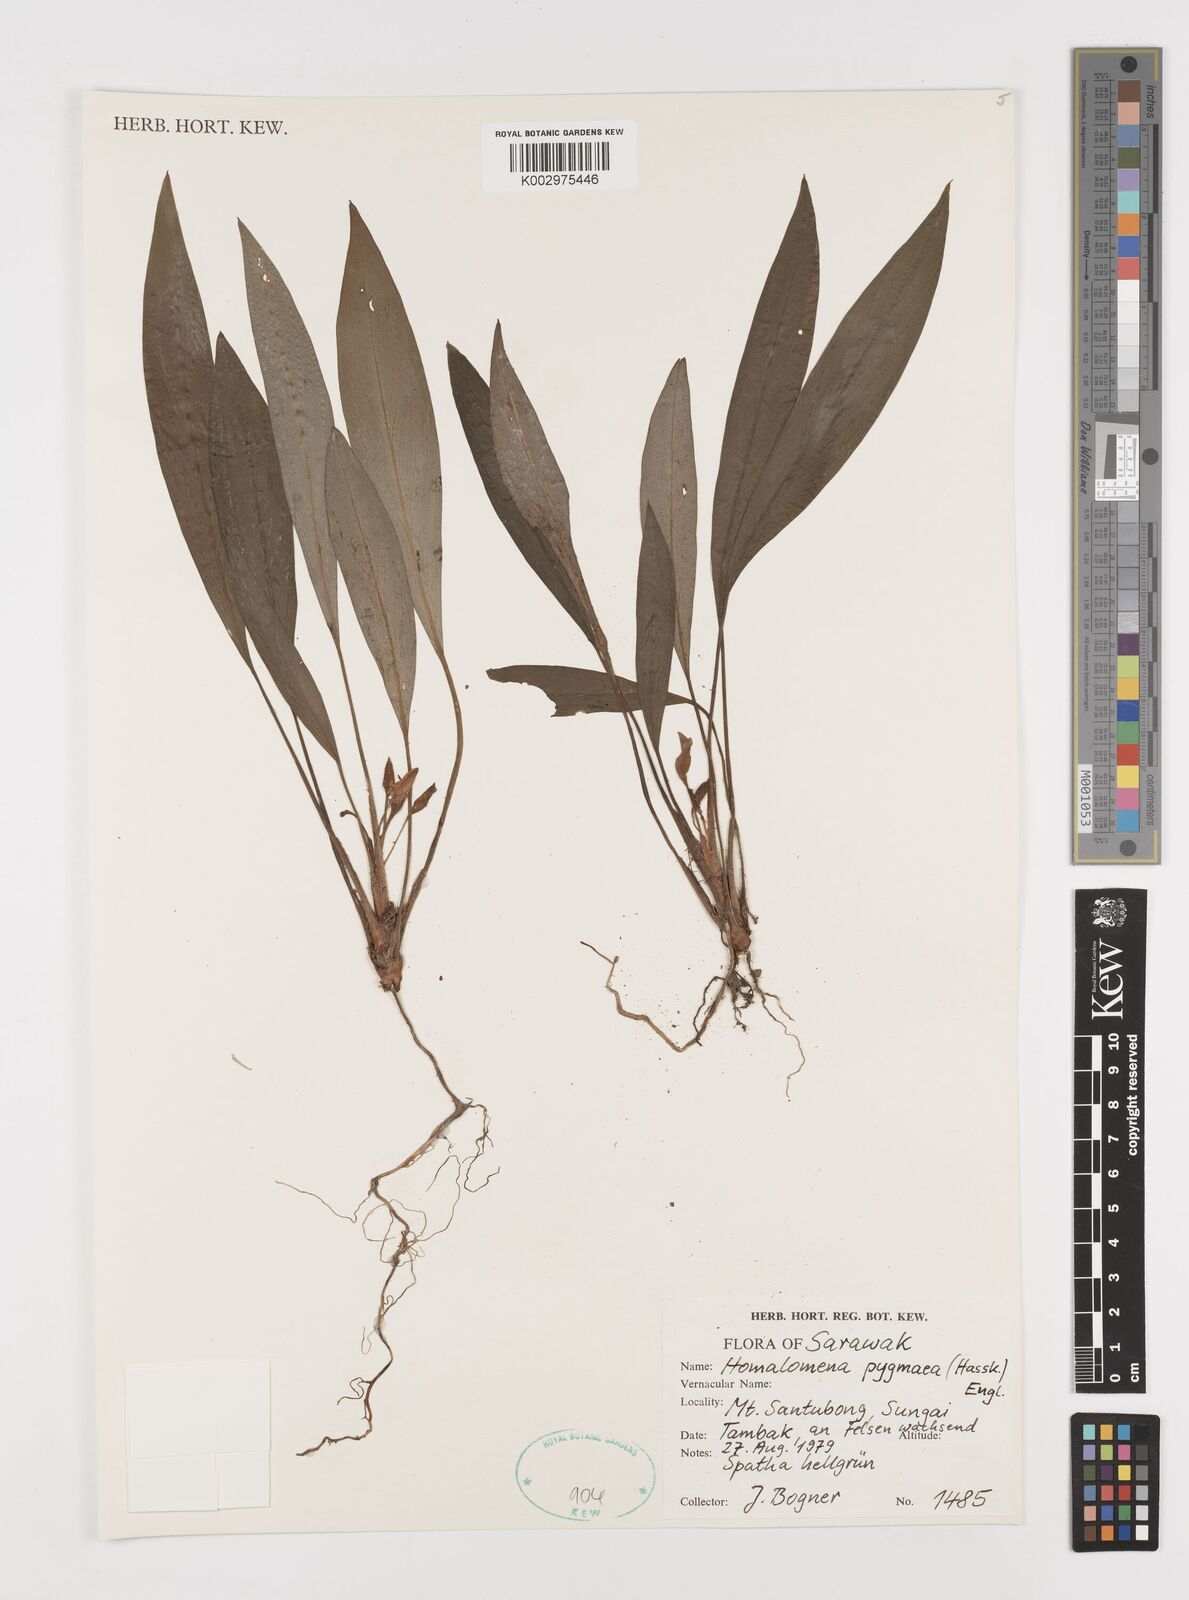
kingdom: Plantae
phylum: Tracheophyta
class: Liliopsida
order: Alismatales
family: Araceae
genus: Homalomena
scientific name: Homalomena humilis
